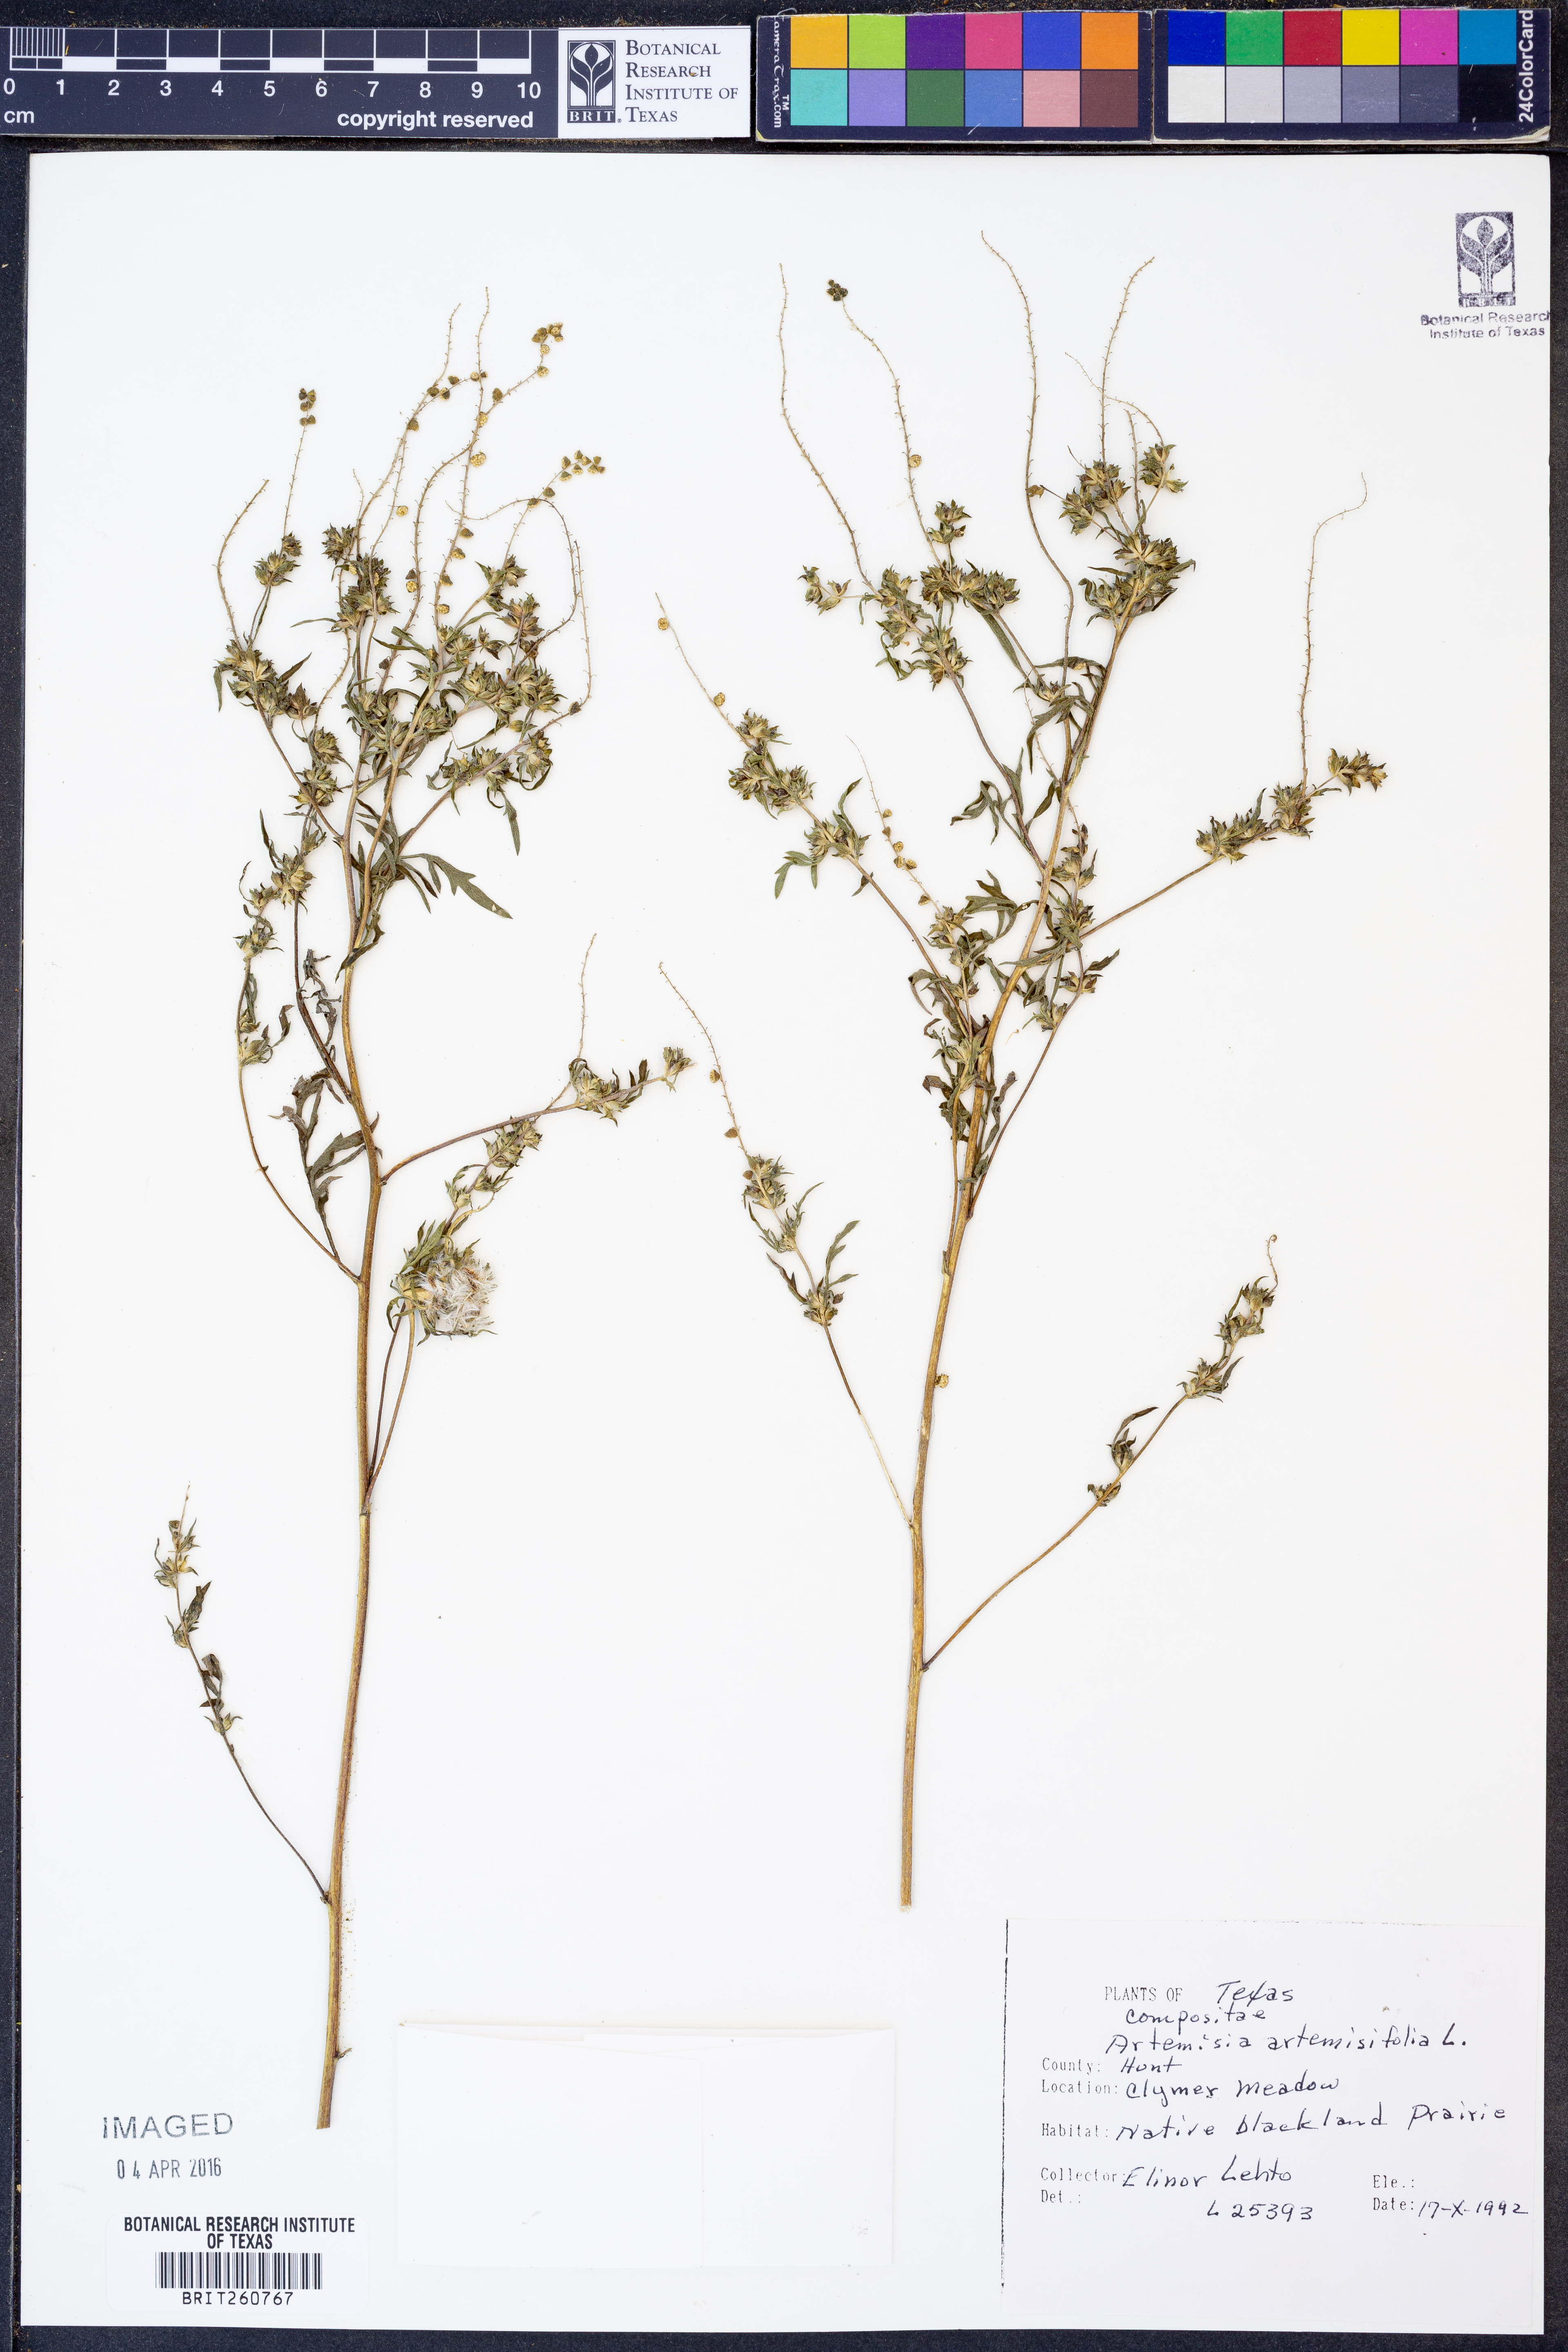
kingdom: Plantae
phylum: Tracheophyta
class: Magnoliopsida
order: Asterales
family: Asteraceae
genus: Artemisia
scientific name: Artemisia
